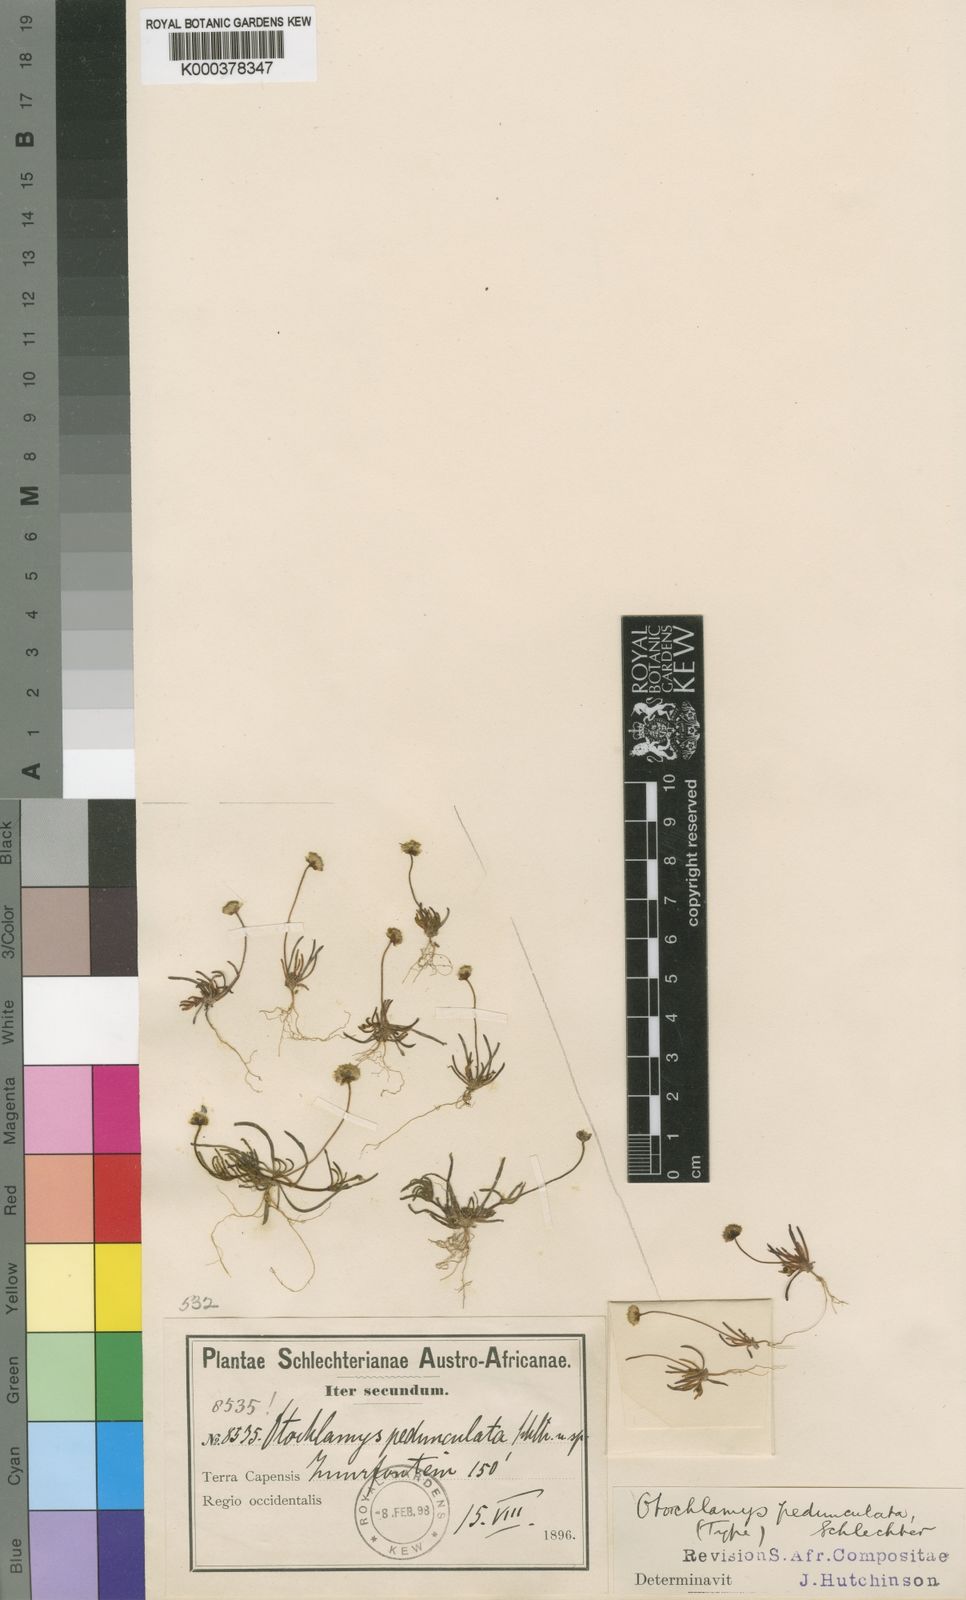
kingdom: Plantae
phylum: Tracheophyta
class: Magnoliopsida
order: Asterales
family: Asteraceae
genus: Cotula
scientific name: Cotula pedunculata
